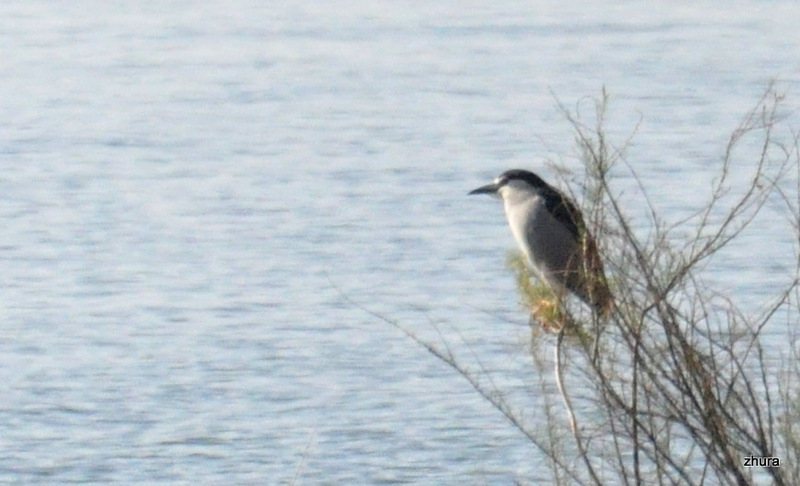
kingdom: Animalia
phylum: Chordata
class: Aves
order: Pelecaniformes
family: Ardeidae
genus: Nycticorax
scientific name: Nycticorax nycticorax
